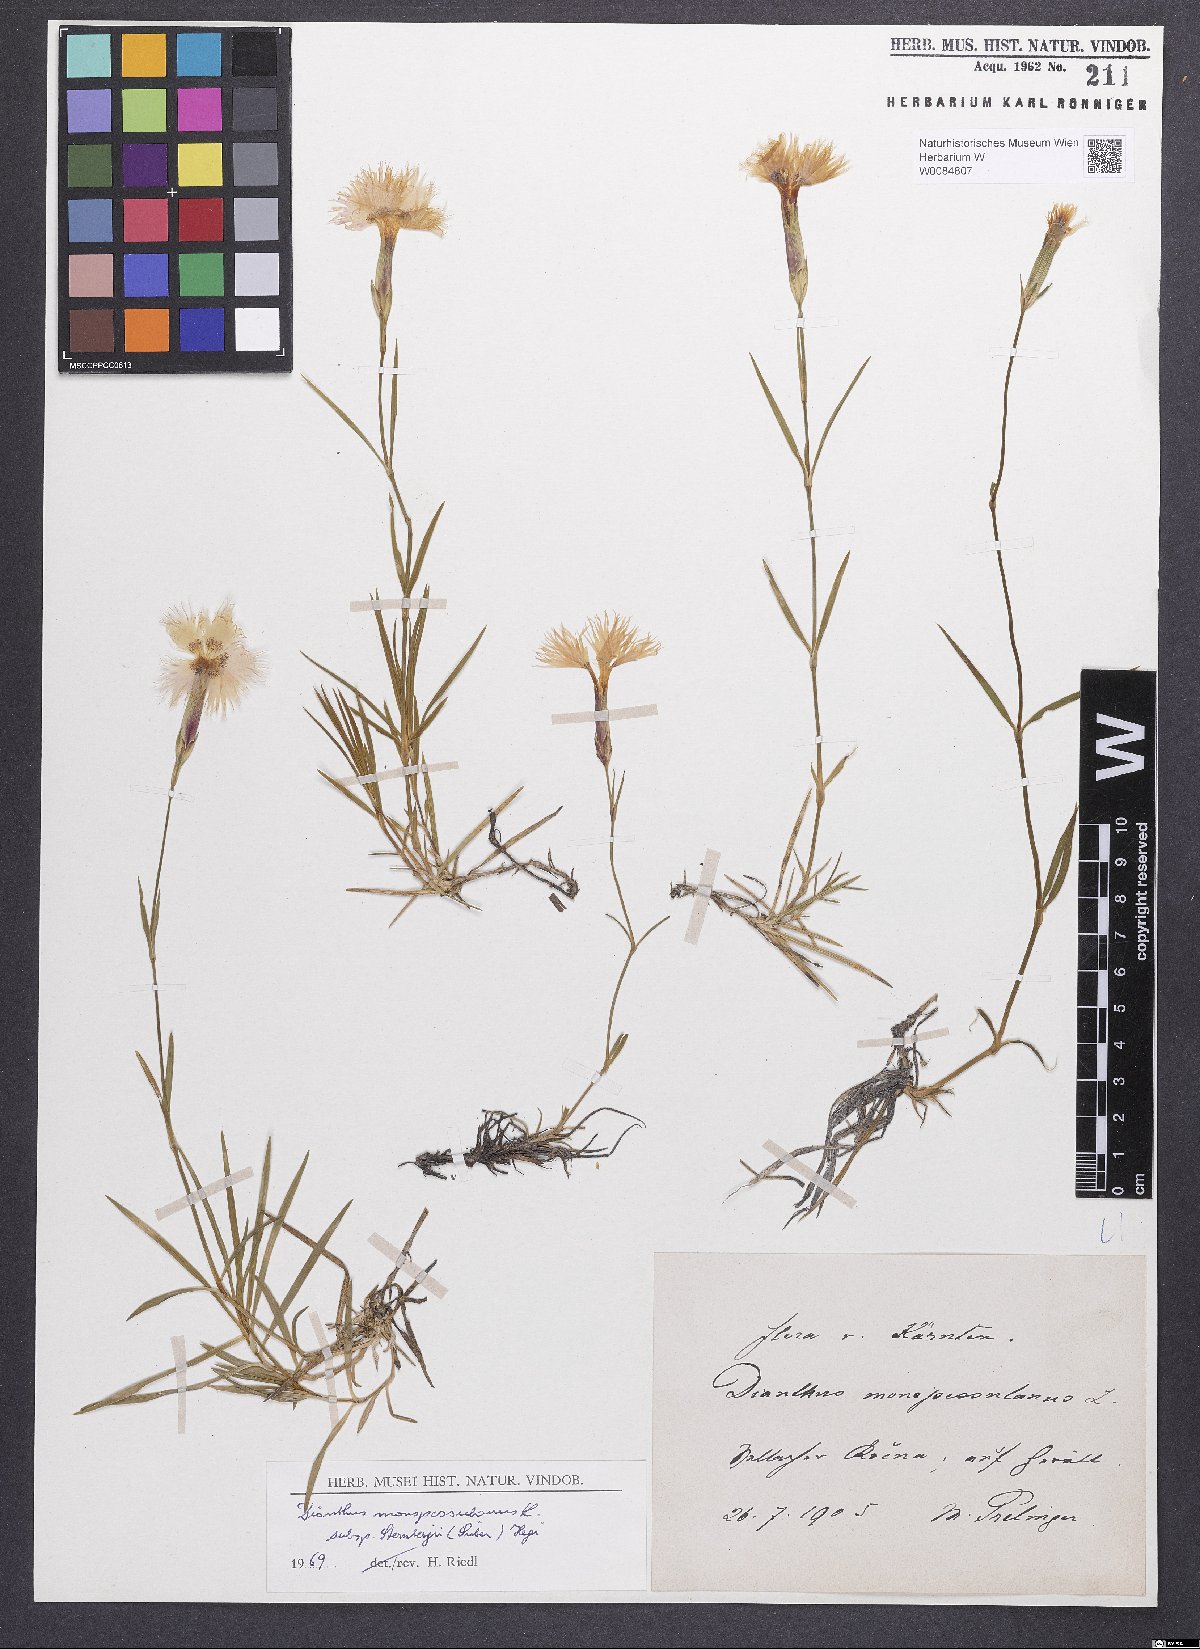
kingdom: Plantae
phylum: Tracheophyta
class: Magnoliopsida
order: Caryophyllales
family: Caryophyllaceae
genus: Dianthus
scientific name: Dianthus monspessulanus
